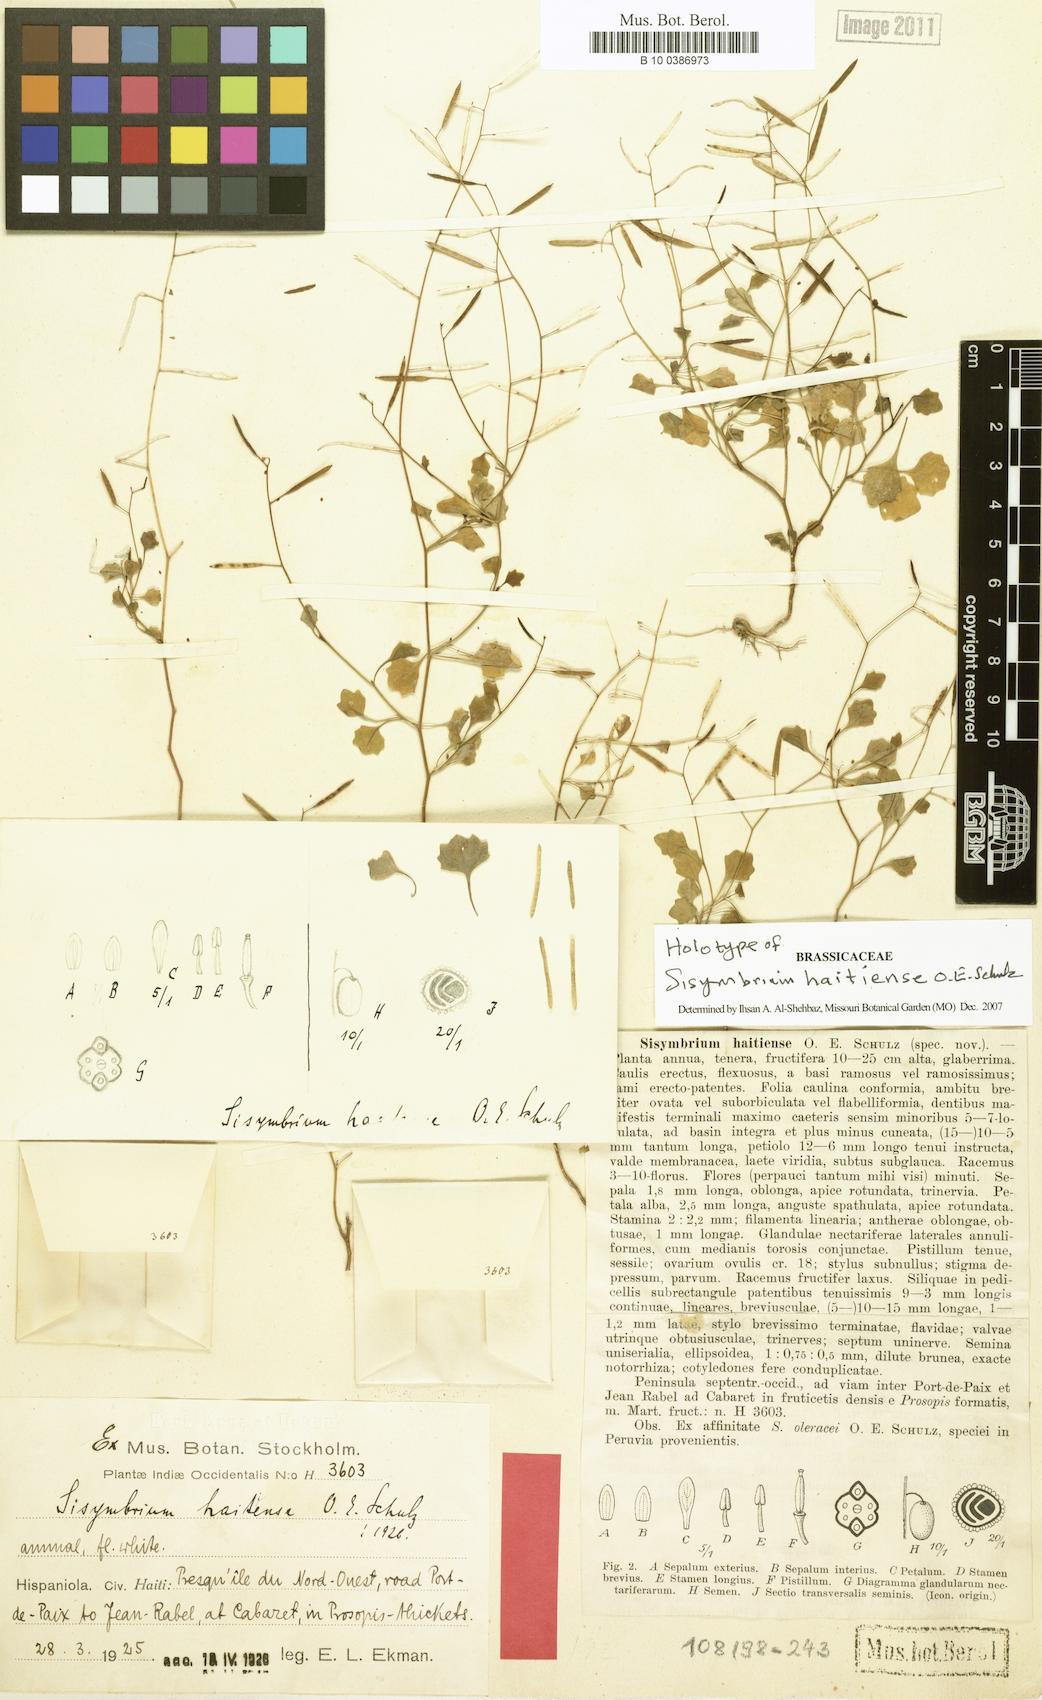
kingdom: Plantae
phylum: Tracheophyta
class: Magnoliopsida
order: Brassicales
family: Brassicaceae
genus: Mostacillastrum
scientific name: Mostacillastrum haitiense
